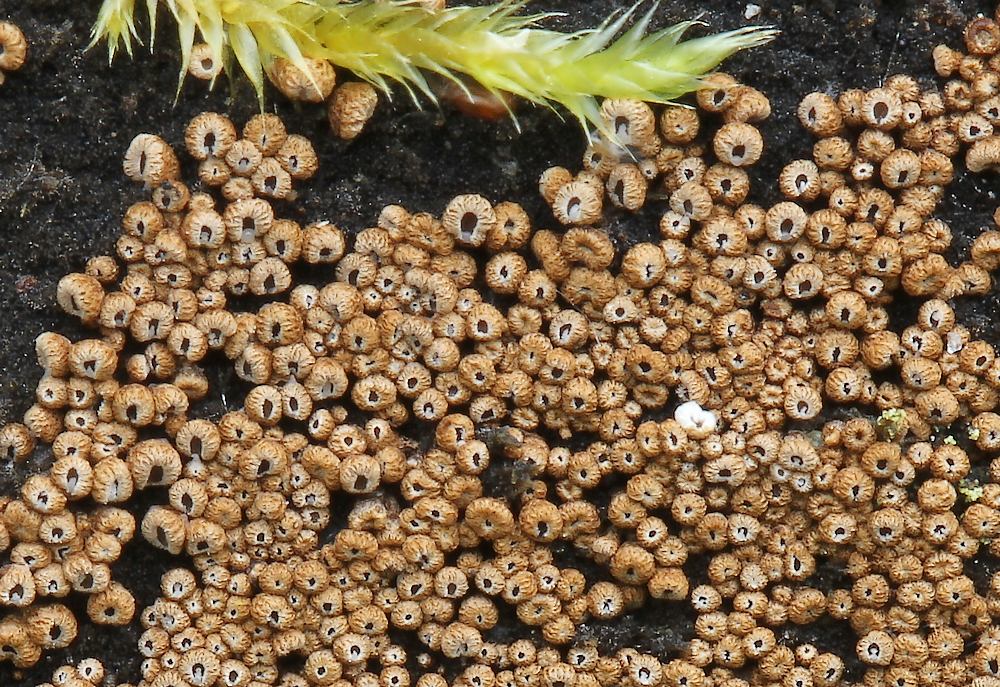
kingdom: Fungi
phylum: Basidiomycota
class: Agaricomycetes
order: Agaricales
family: Niaceae
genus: Merismodes
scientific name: Merismodes anomala
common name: almindelig læderskål
